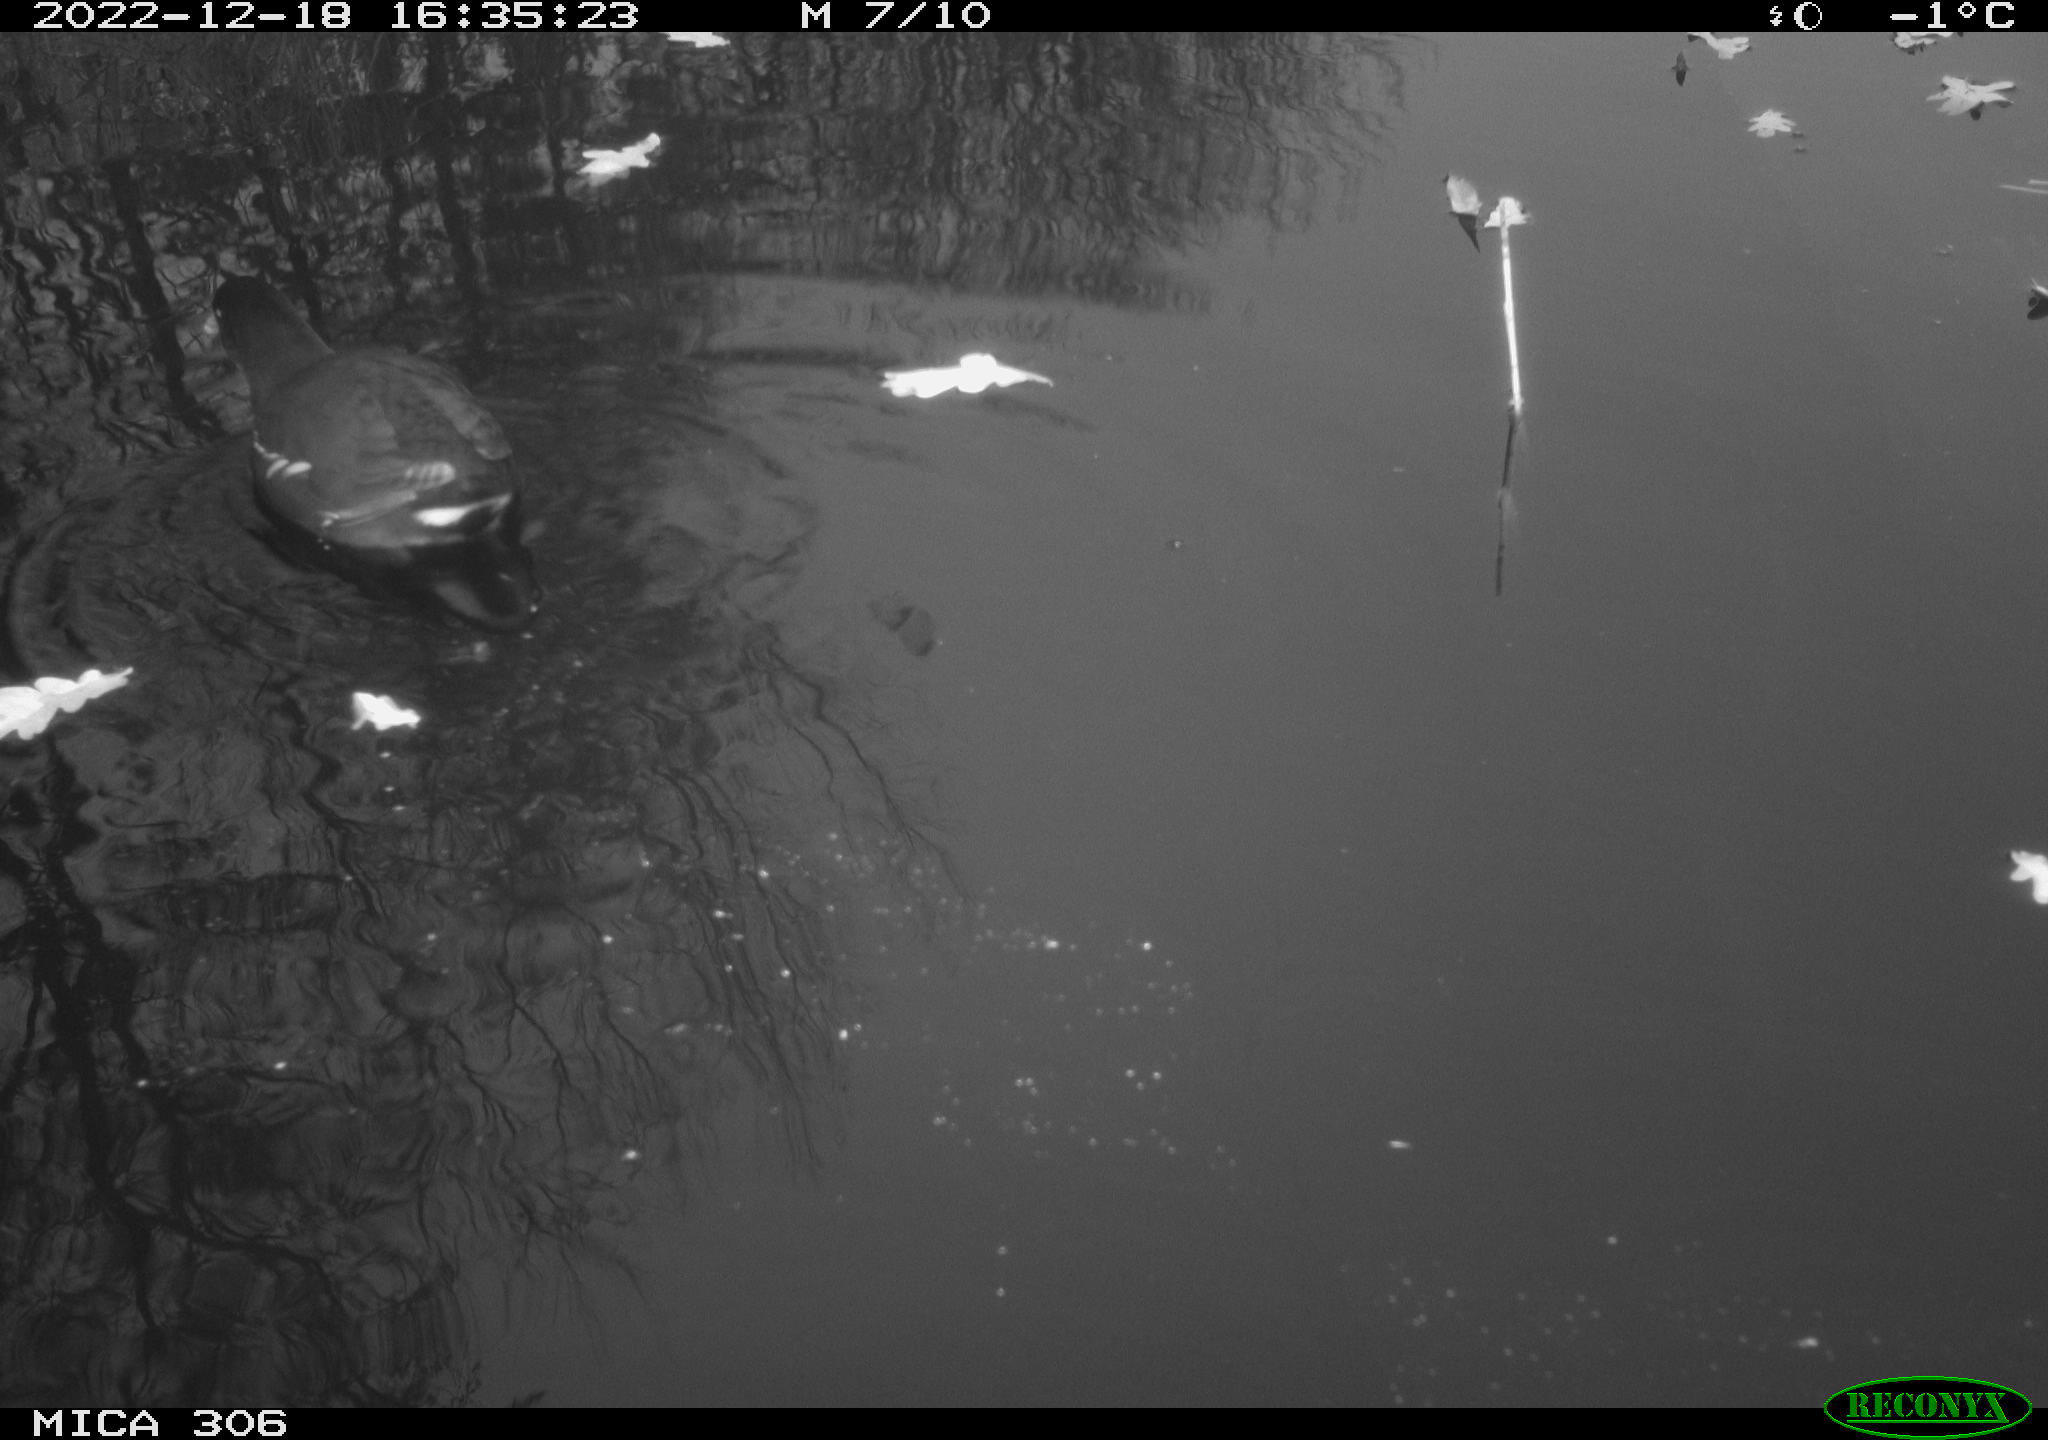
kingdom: Animalia
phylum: Chordata
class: Aves
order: Gruiformes
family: Rallidae
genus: Gallinula
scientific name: Gallinula chloropus
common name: Common moorhen
